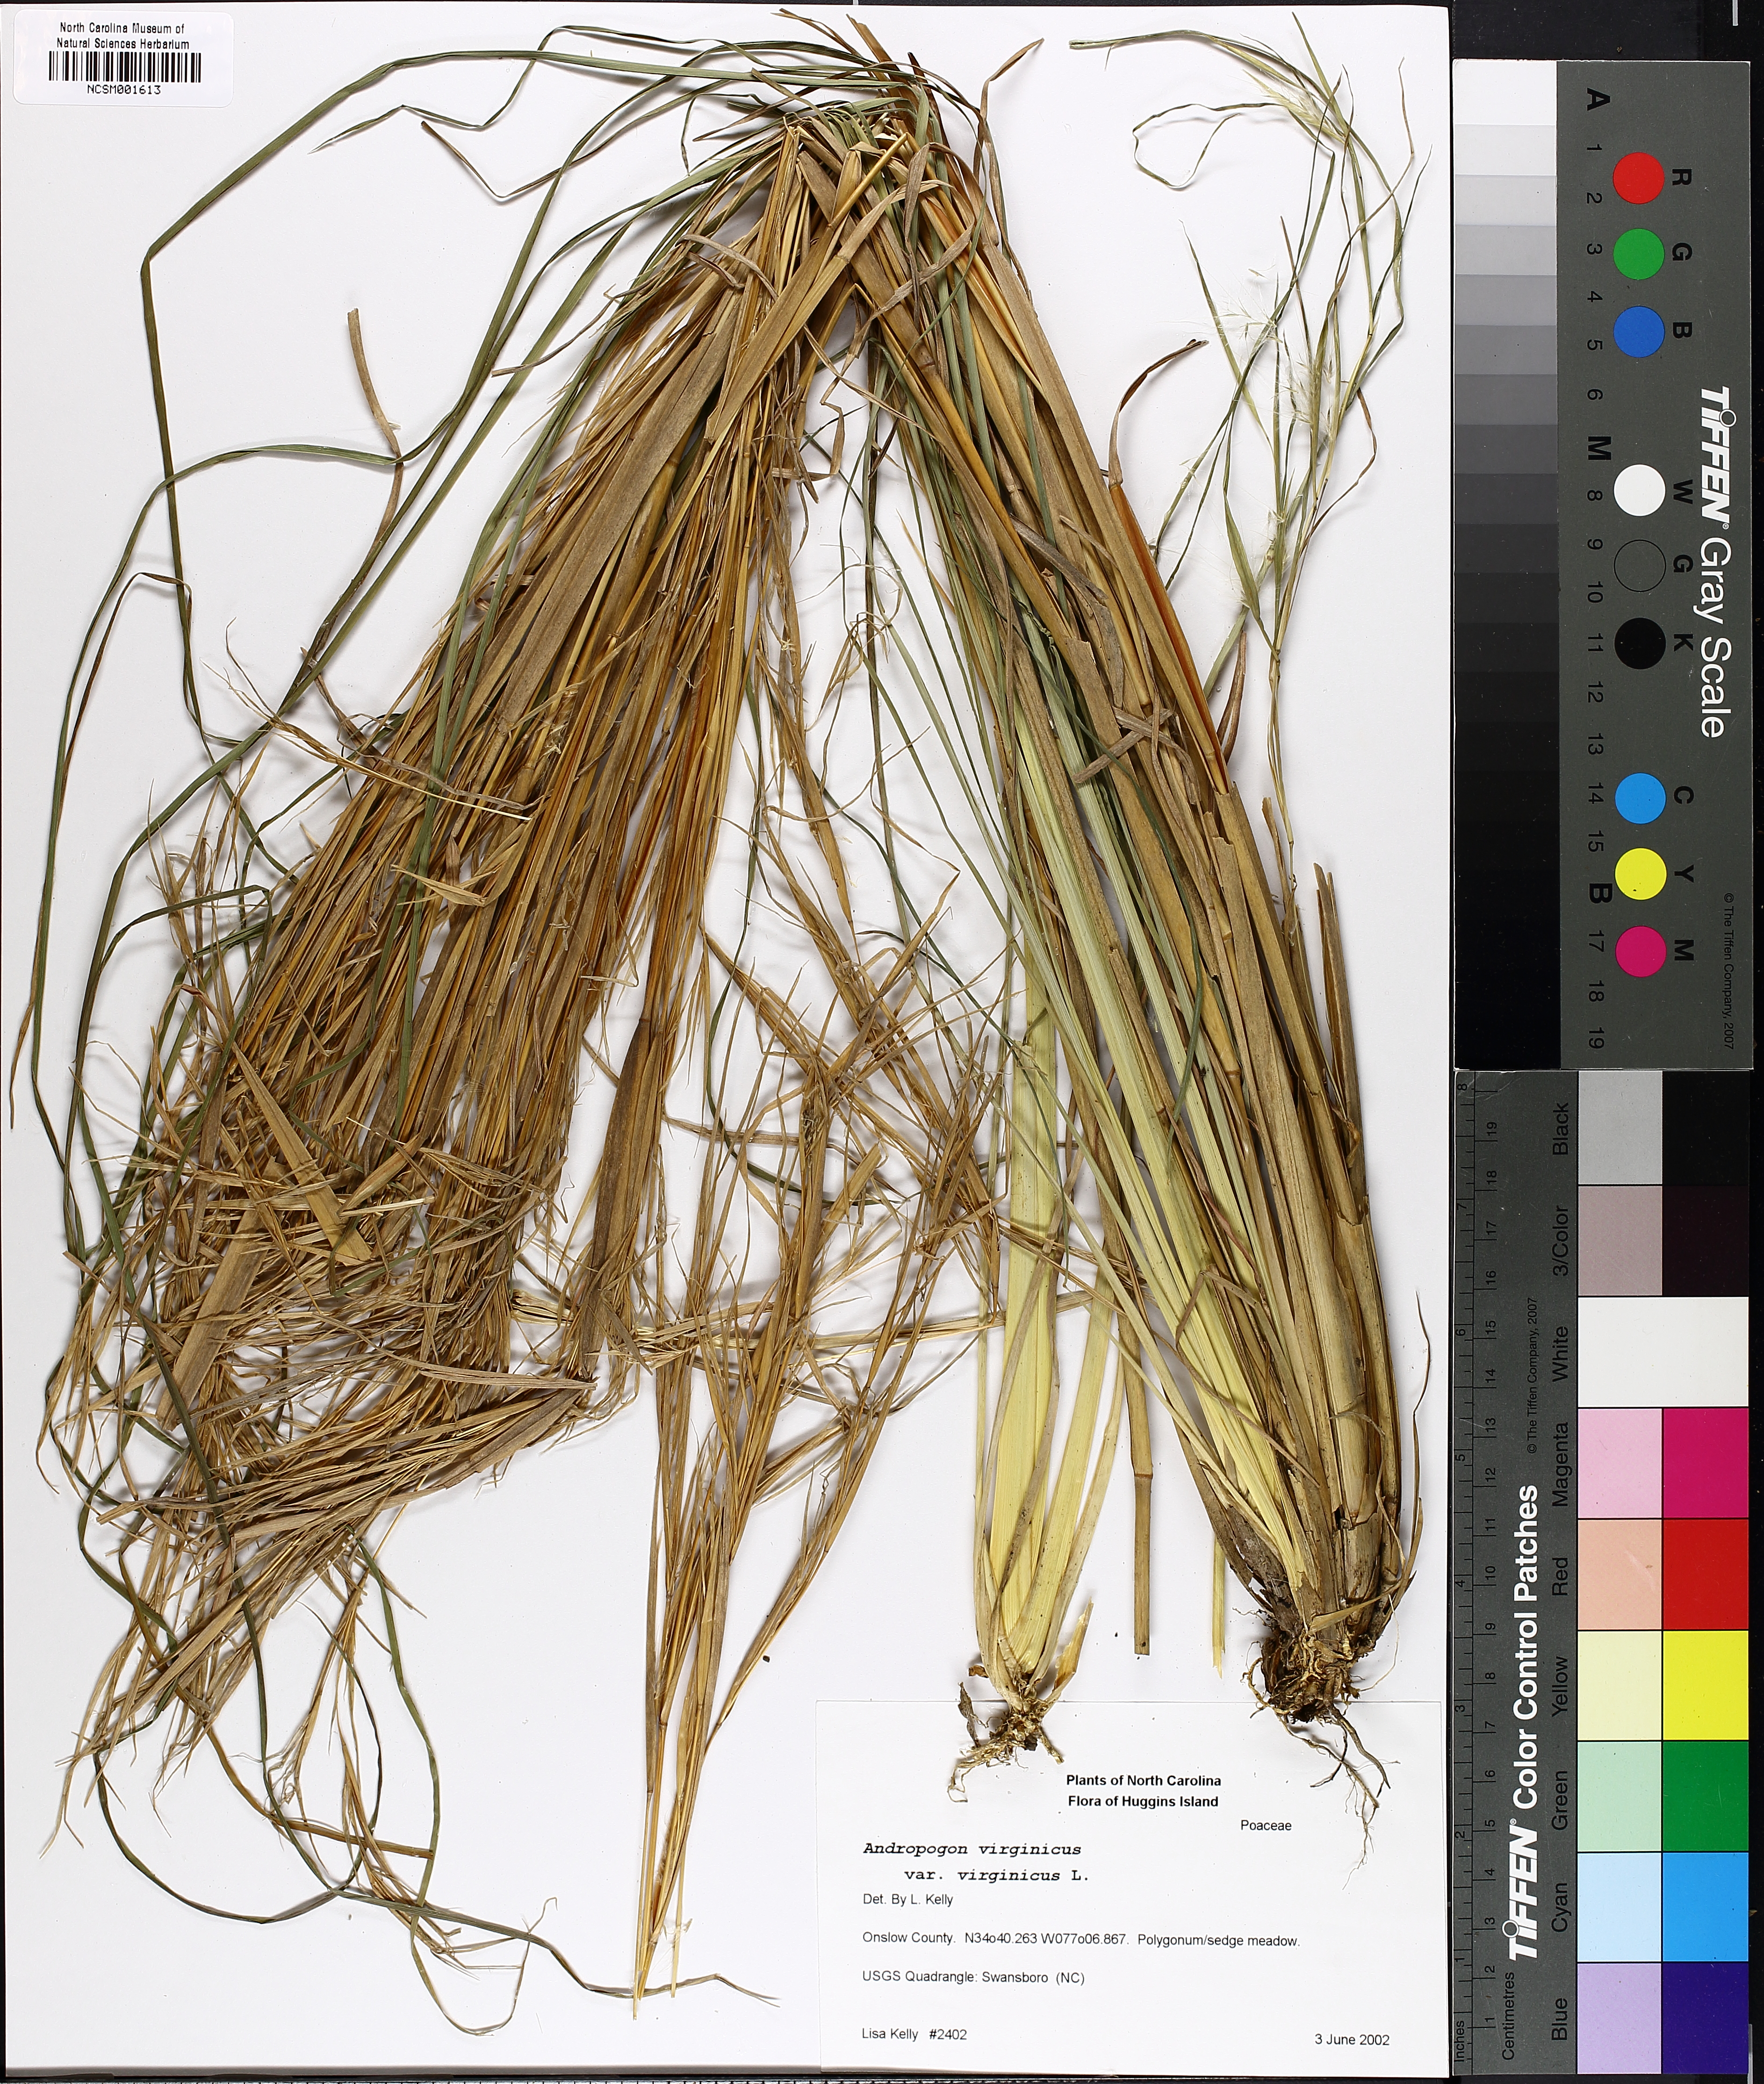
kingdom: Plantae
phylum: Tracheophyta
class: Liliopsida
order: Poales
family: Poaceae
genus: Andropogon
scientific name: Andropogon virginicus
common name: Broomsedge bluestem
